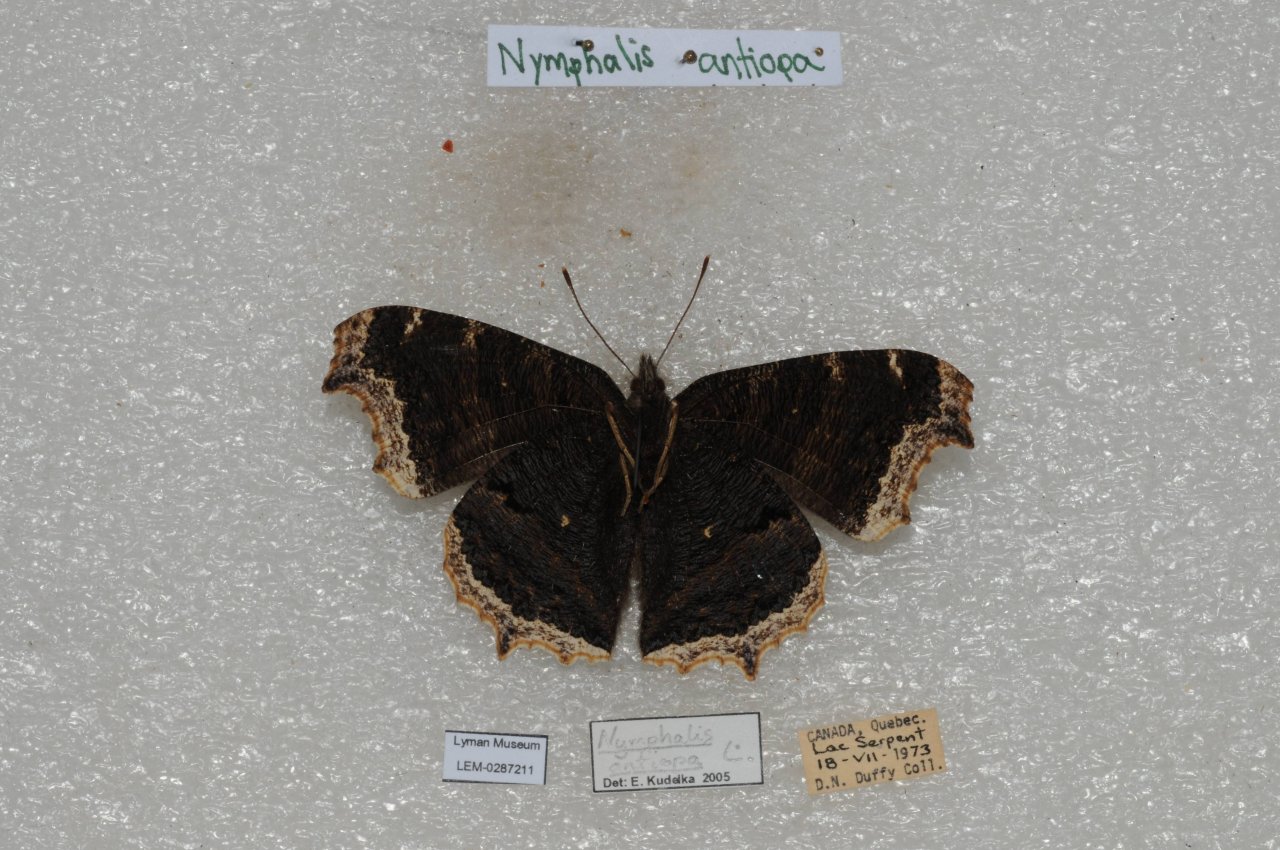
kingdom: Animalia
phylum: Arthropoda
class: Insecta
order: Lepidoptera
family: Nymphalidae
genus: Nymphalis
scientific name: Nymphalis antiopa
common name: Mourning Cloak
